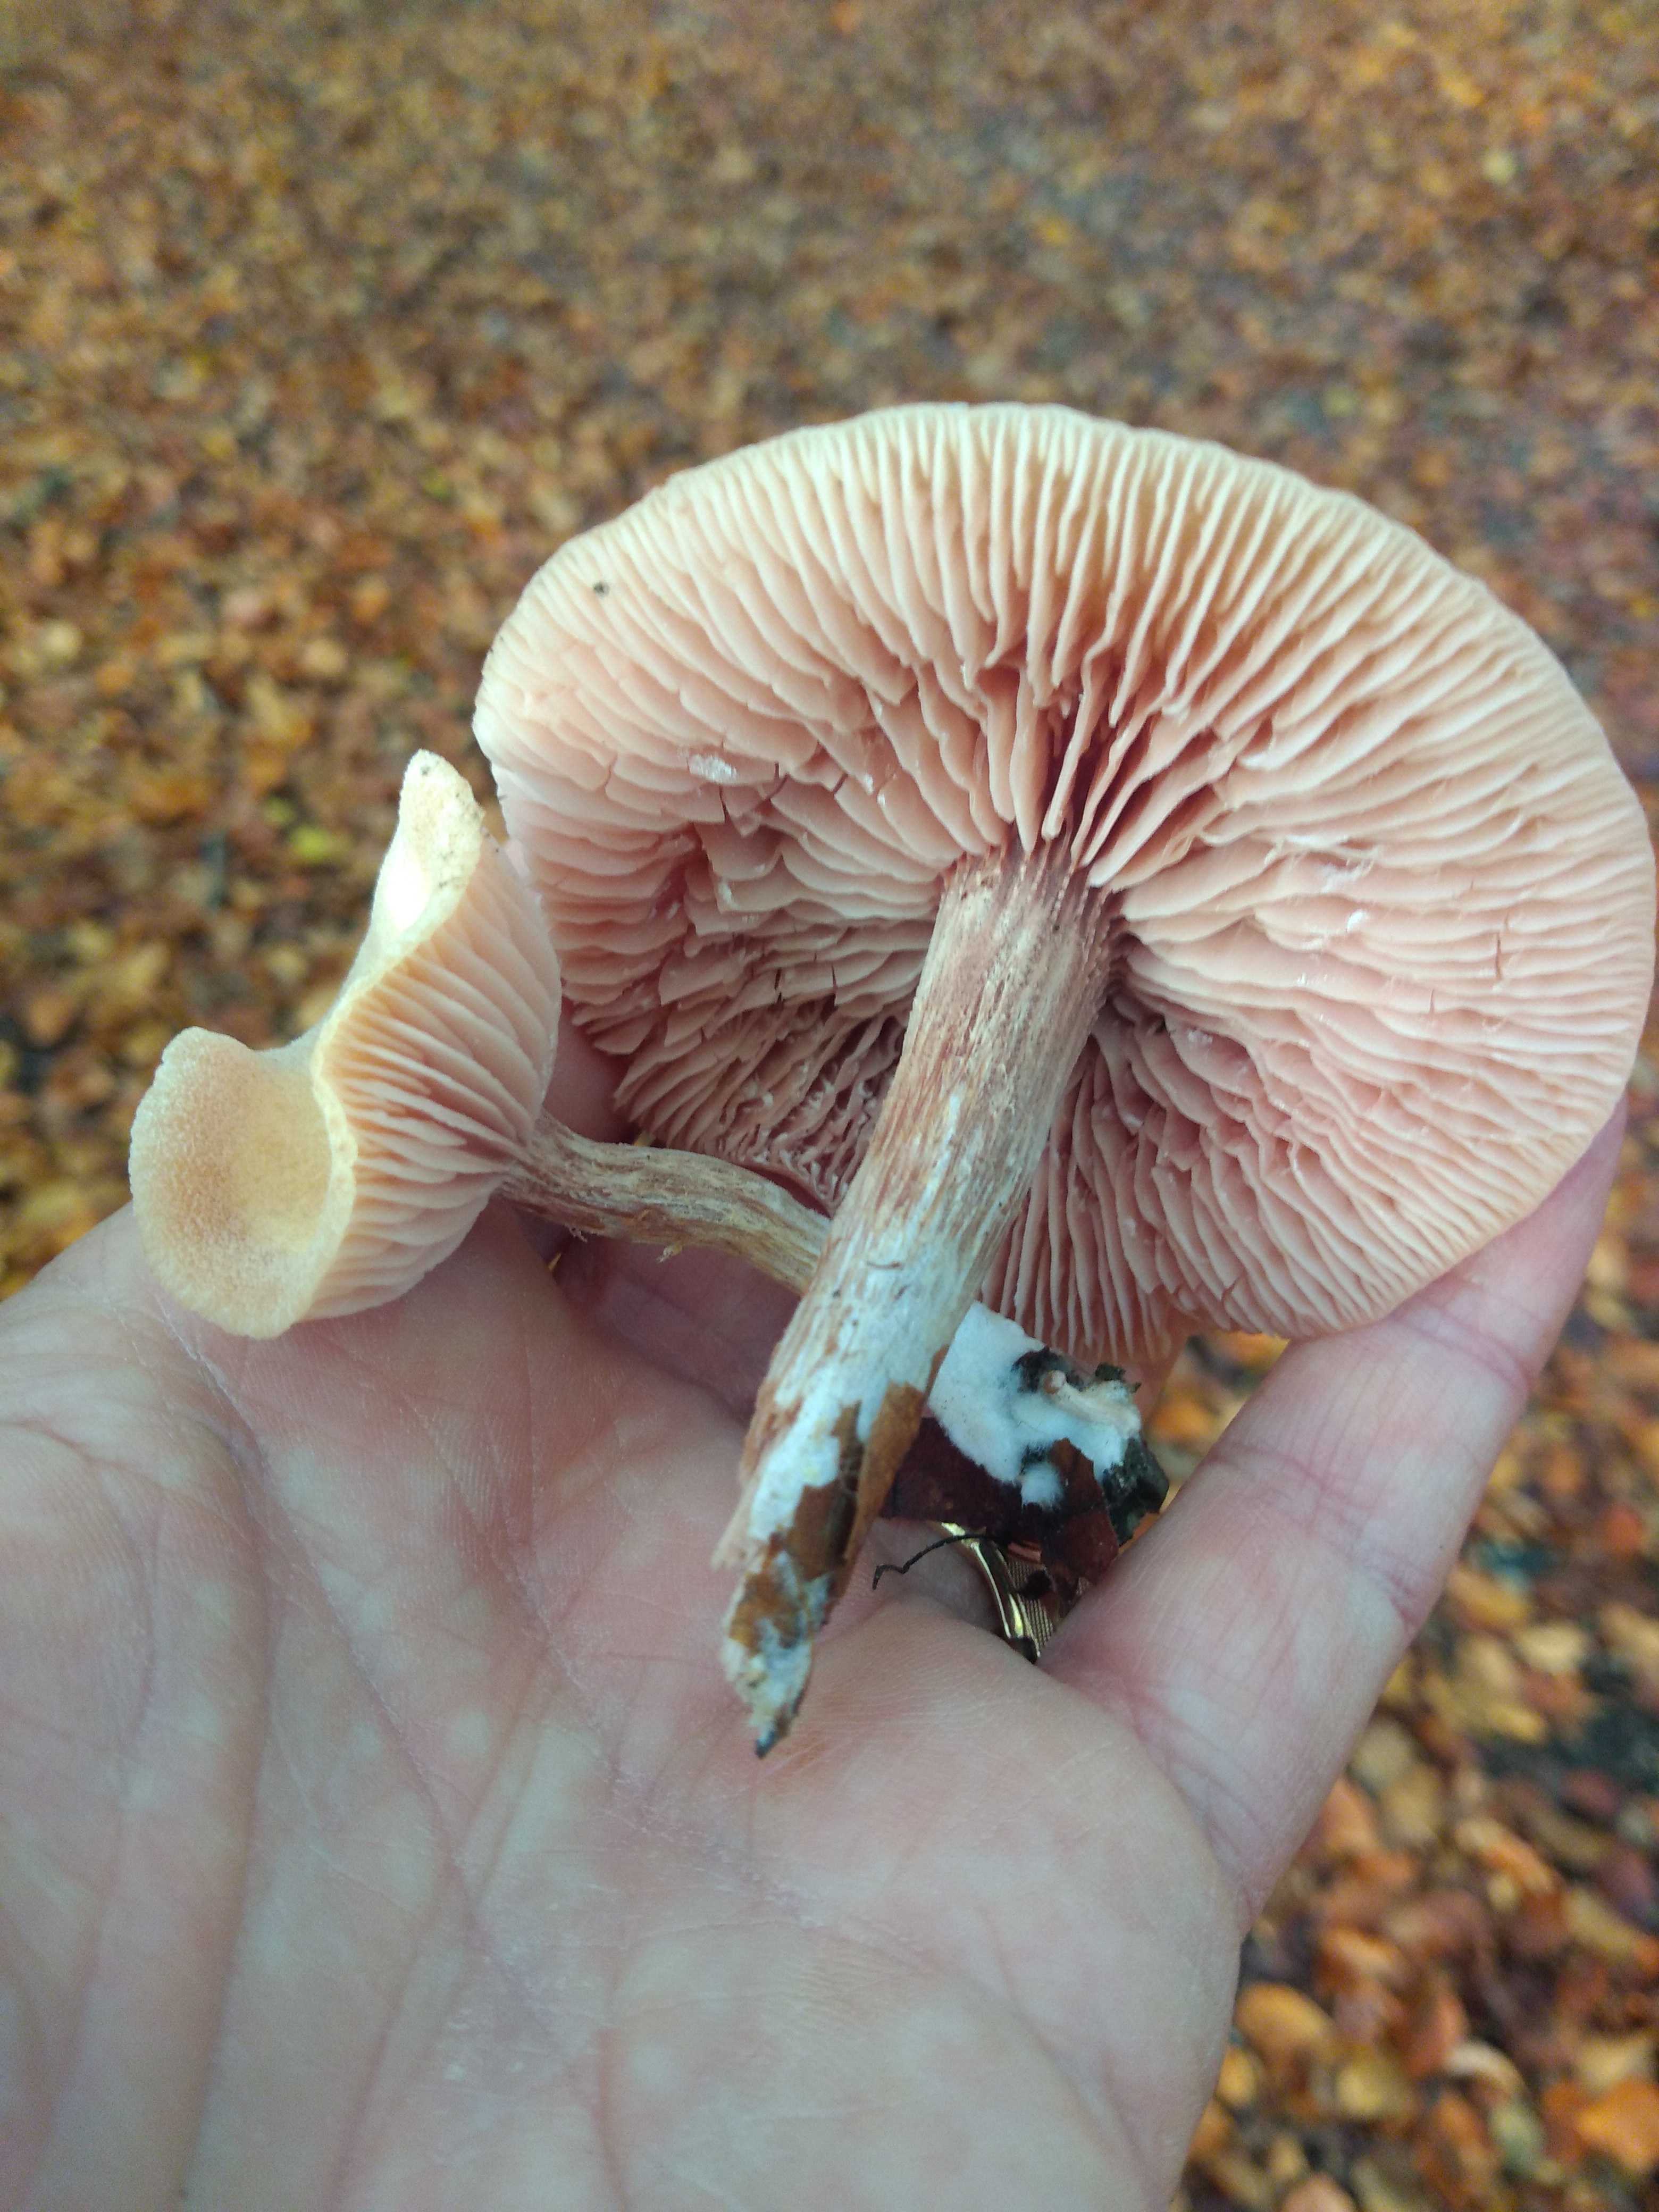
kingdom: Fungi
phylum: Basidiomycota
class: Agaricomycetes
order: Agaricales
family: Hydnangiaceae
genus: Laccaria
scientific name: Laccaria proxima
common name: stor ametysthat
